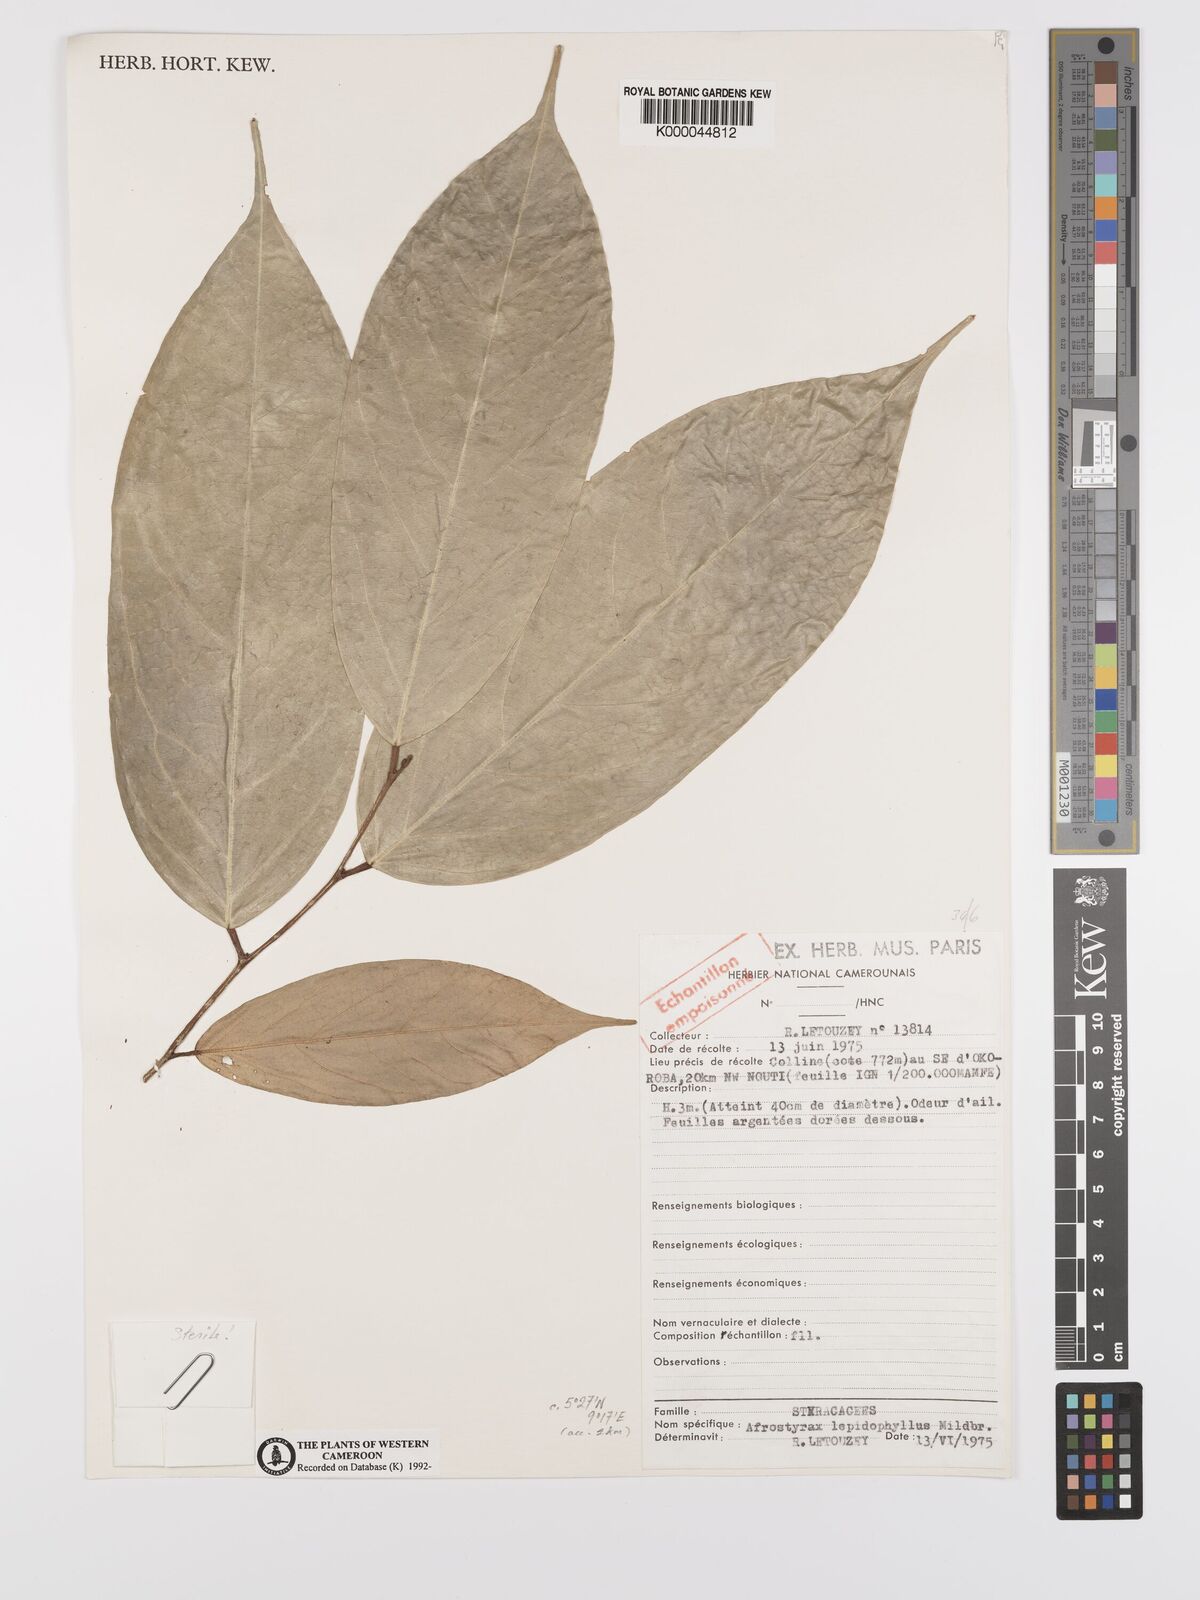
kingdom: Plantae
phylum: Tracheophyta
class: Magnoliopsida
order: Oxalidales
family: Huaceae
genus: Afrostyrax
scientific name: Afrostyrax lepidophyllus
